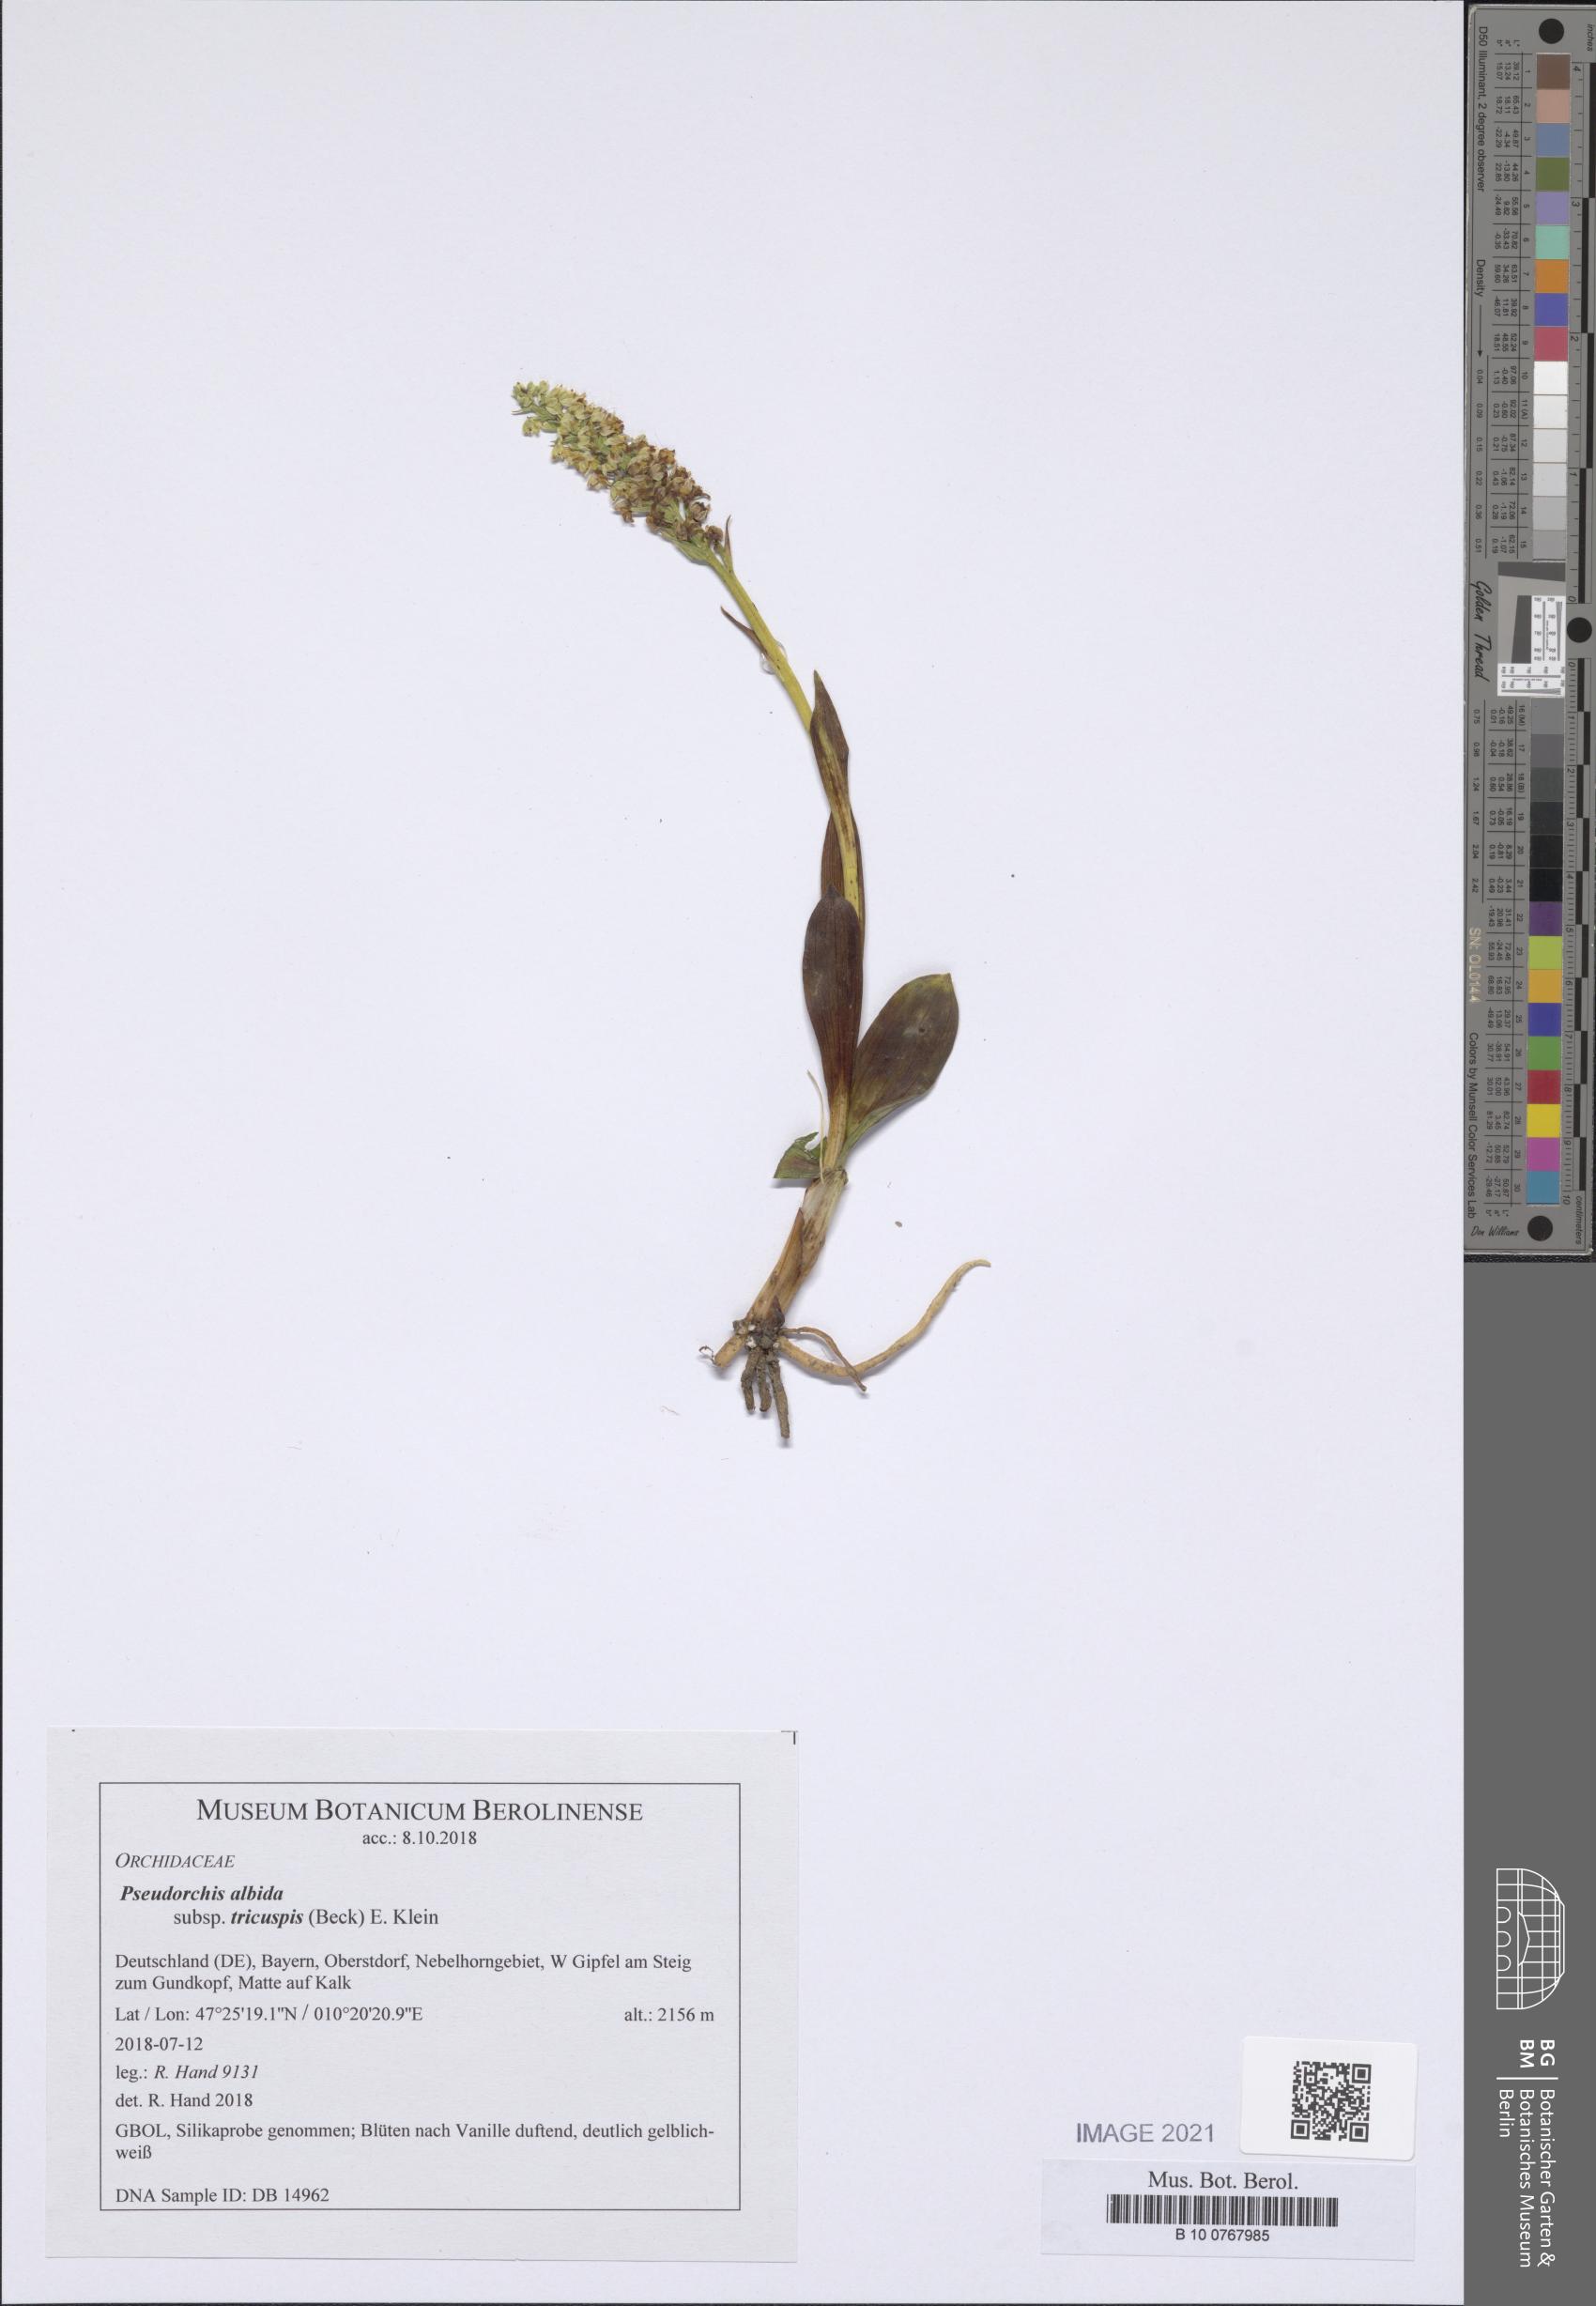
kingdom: Plantae
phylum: Tracheophyta
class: Liliopsida
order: Asparagales
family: Orchidaceae
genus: Pseudorchis
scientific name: Pseudorchis albida
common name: Small-white orchid
